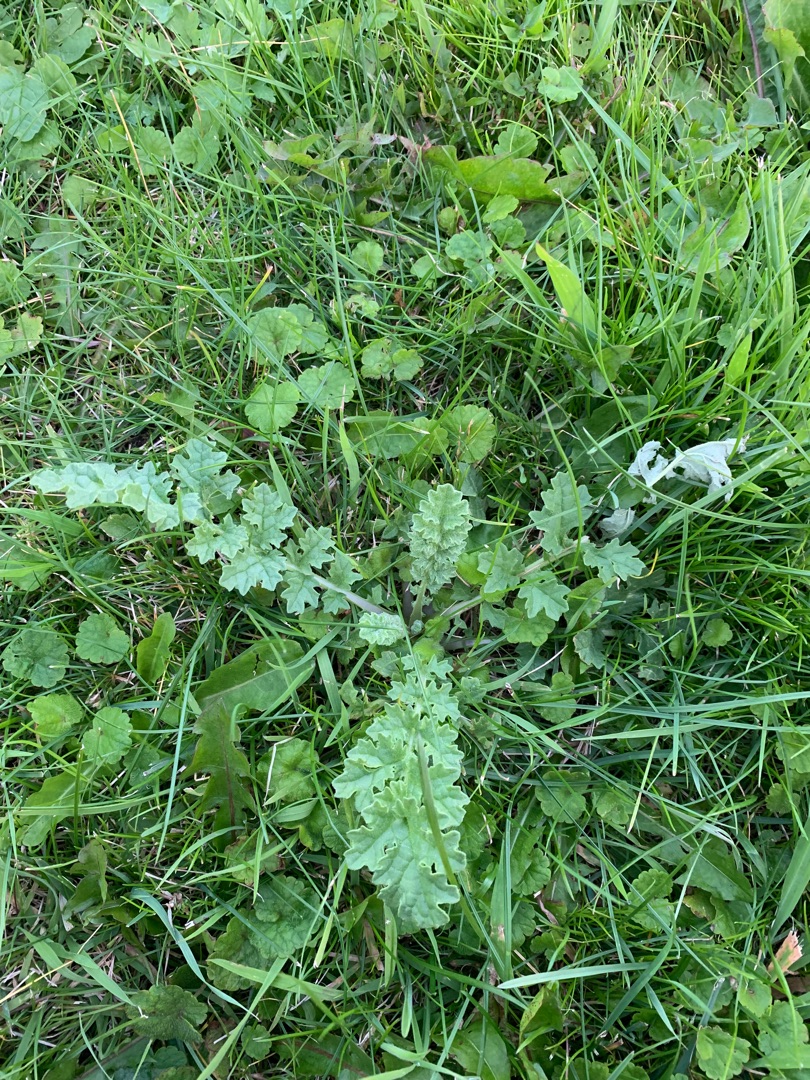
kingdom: Plantae
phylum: Tracheophyta
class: Magnoliopsida
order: Asterales
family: Asteraceae
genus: Jacobaea
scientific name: Jacobaea vulgaris
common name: Eng-brandbæger
